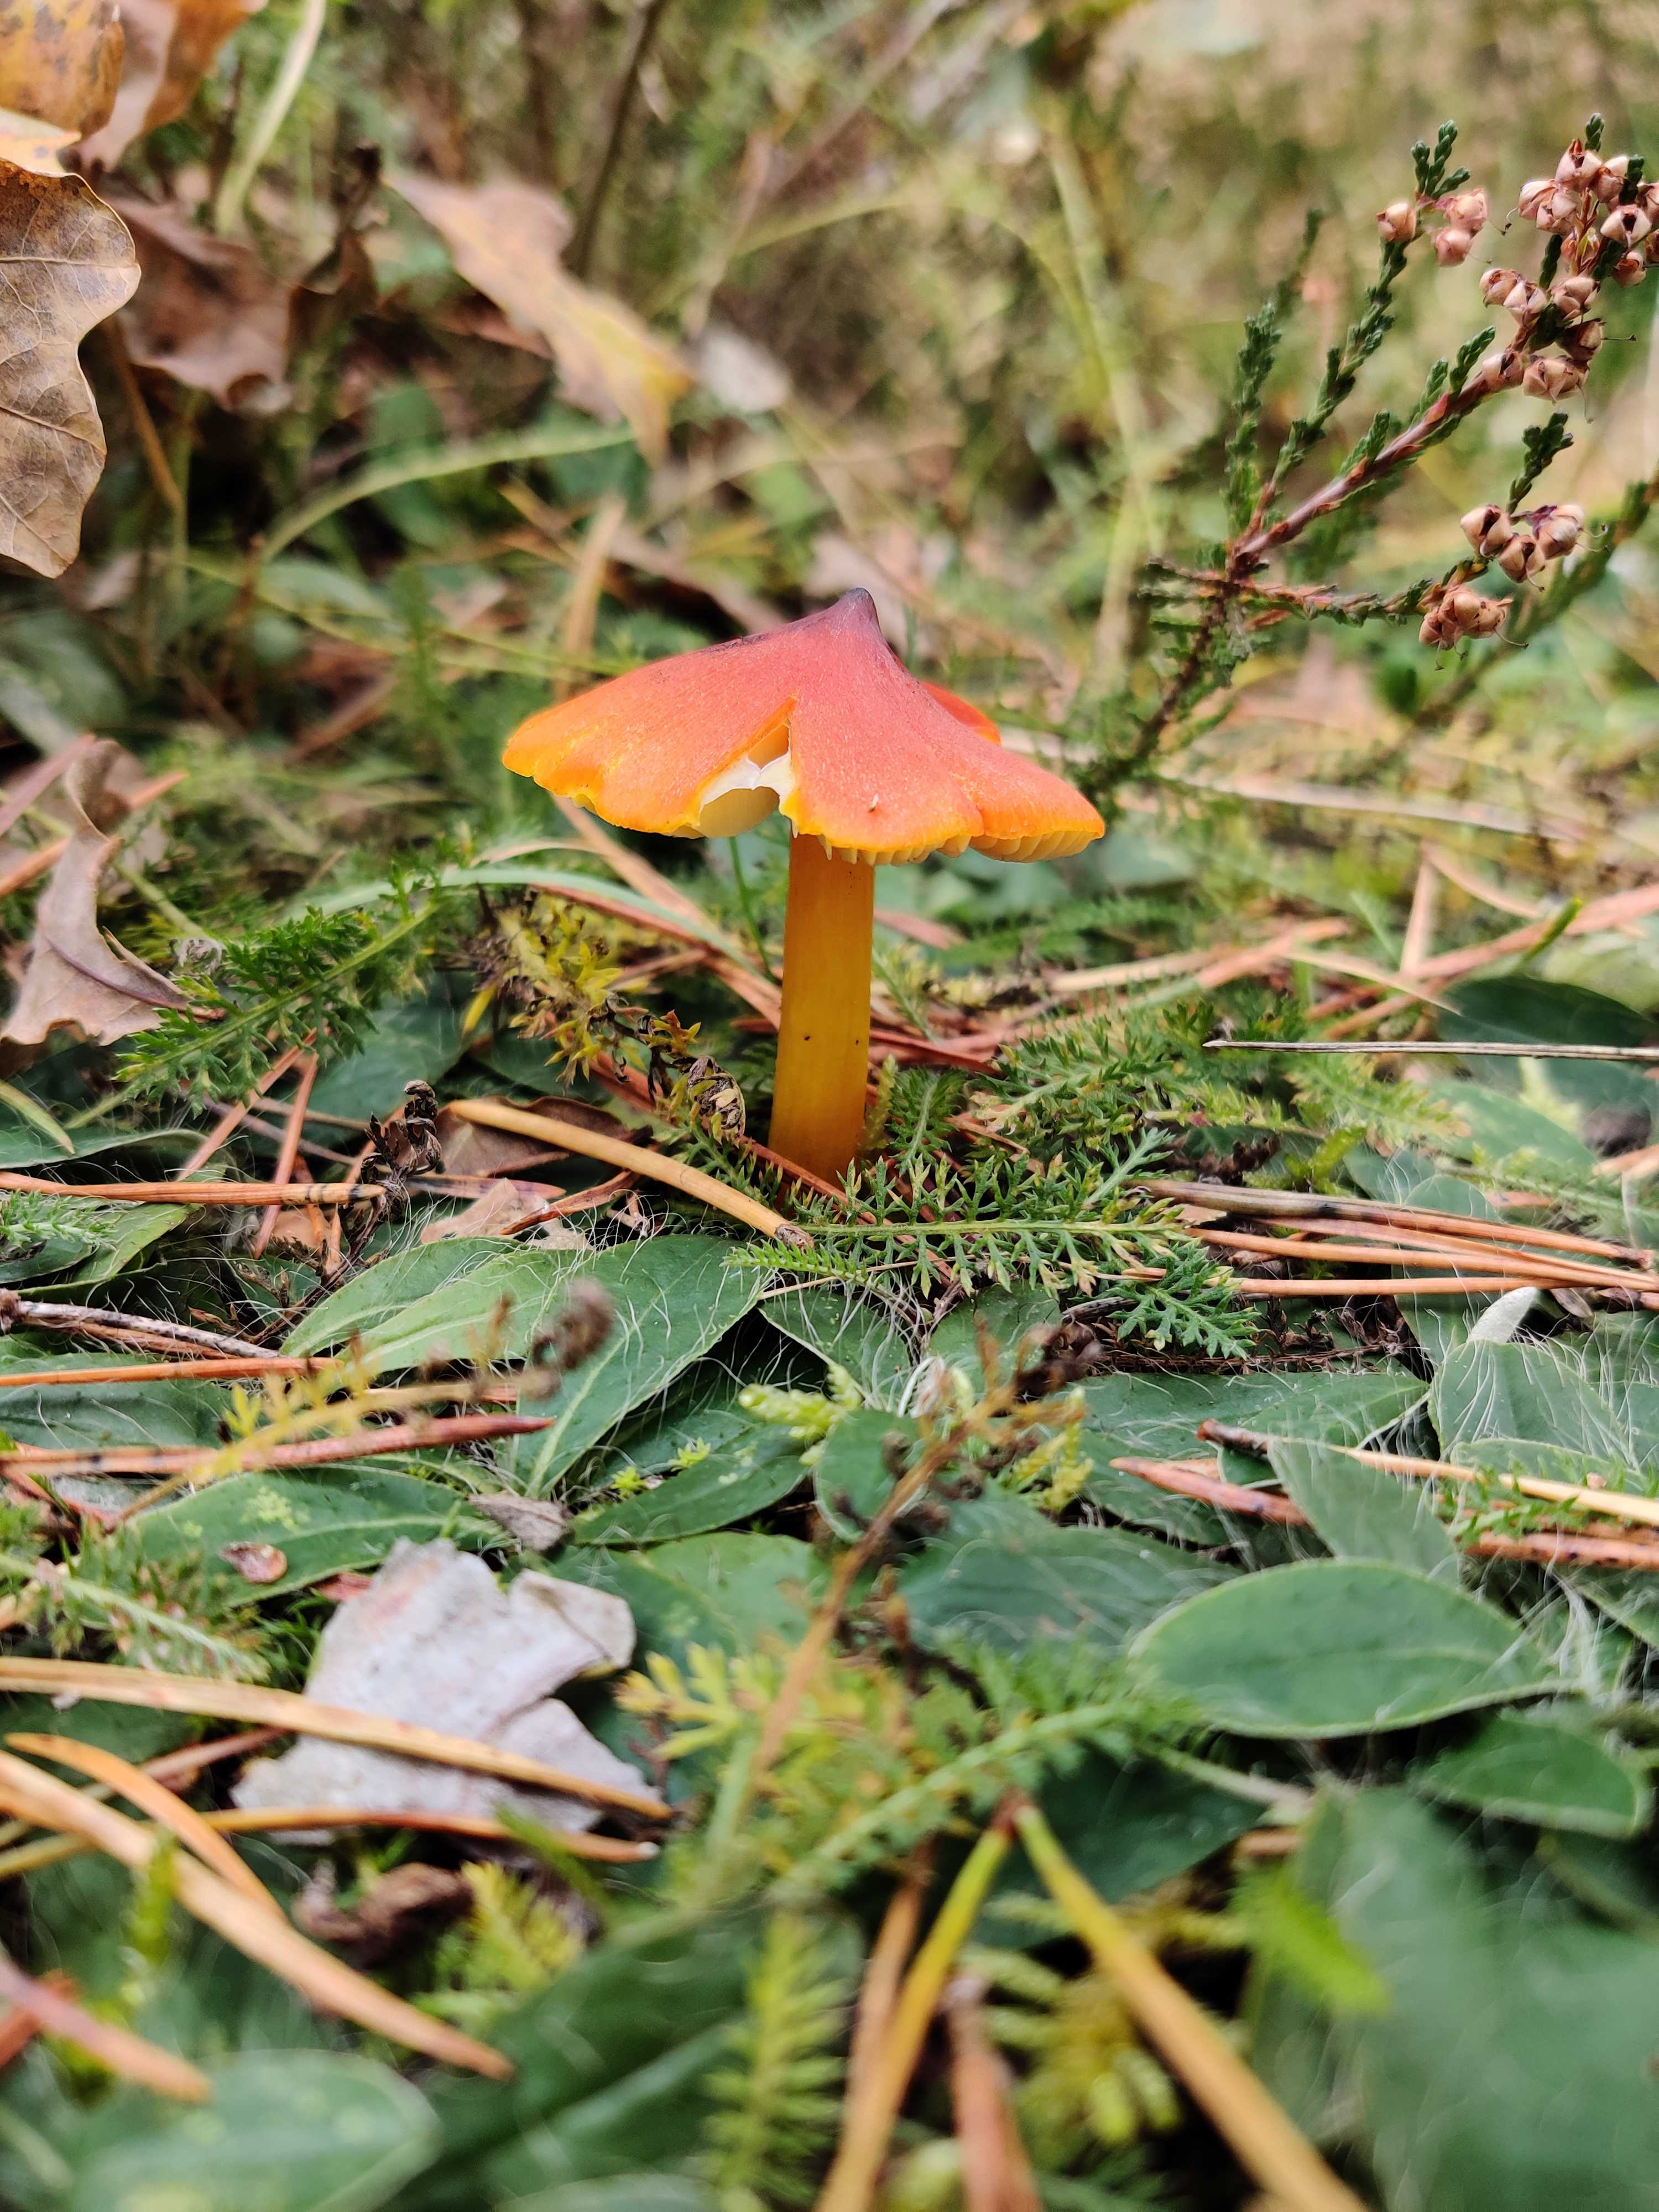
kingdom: Fungi
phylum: Basidiomycota
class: Agaricomycetes
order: Agaricales
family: Hygrophoraceae
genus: Hygrocybe
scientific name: Hygrocybe conica
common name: kegle-vokshat
